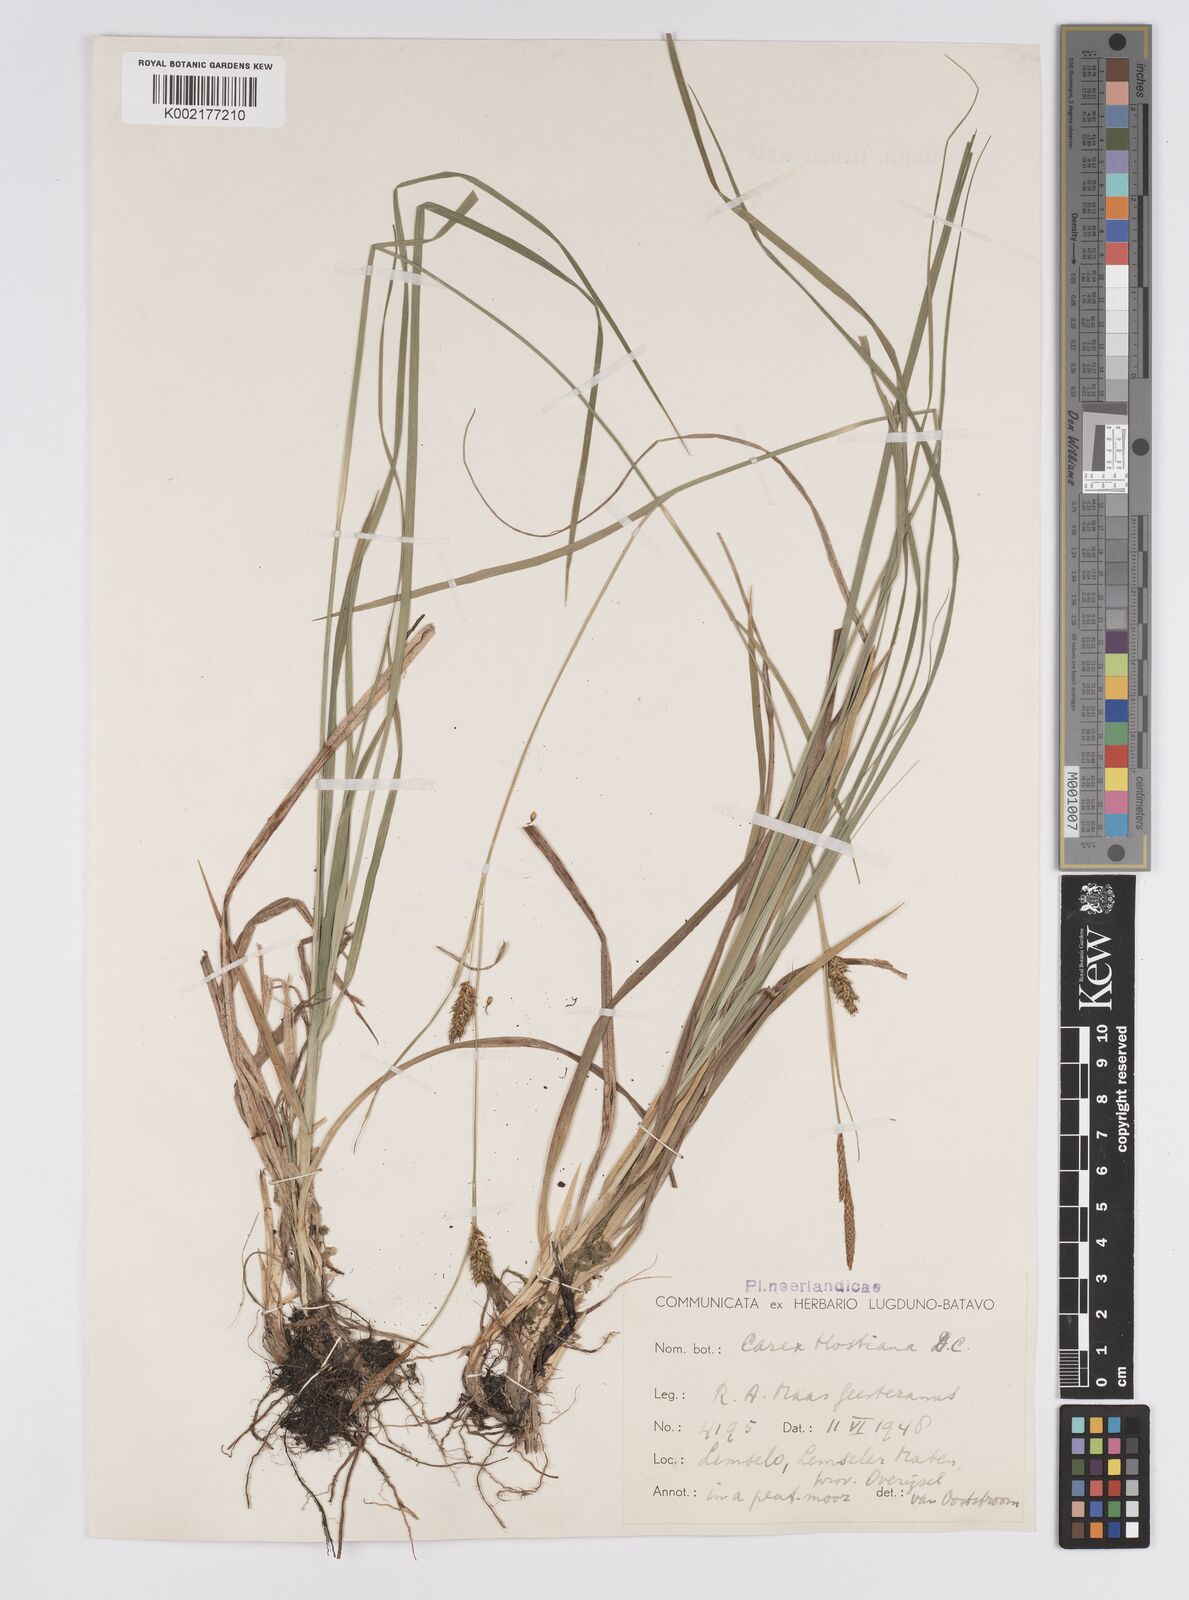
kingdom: Plantae
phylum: Tracheophyta
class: Liliopsida
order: Poales
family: Cyperaceae
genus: Carex
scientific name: Carex hostiana
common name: Tawny sedge
